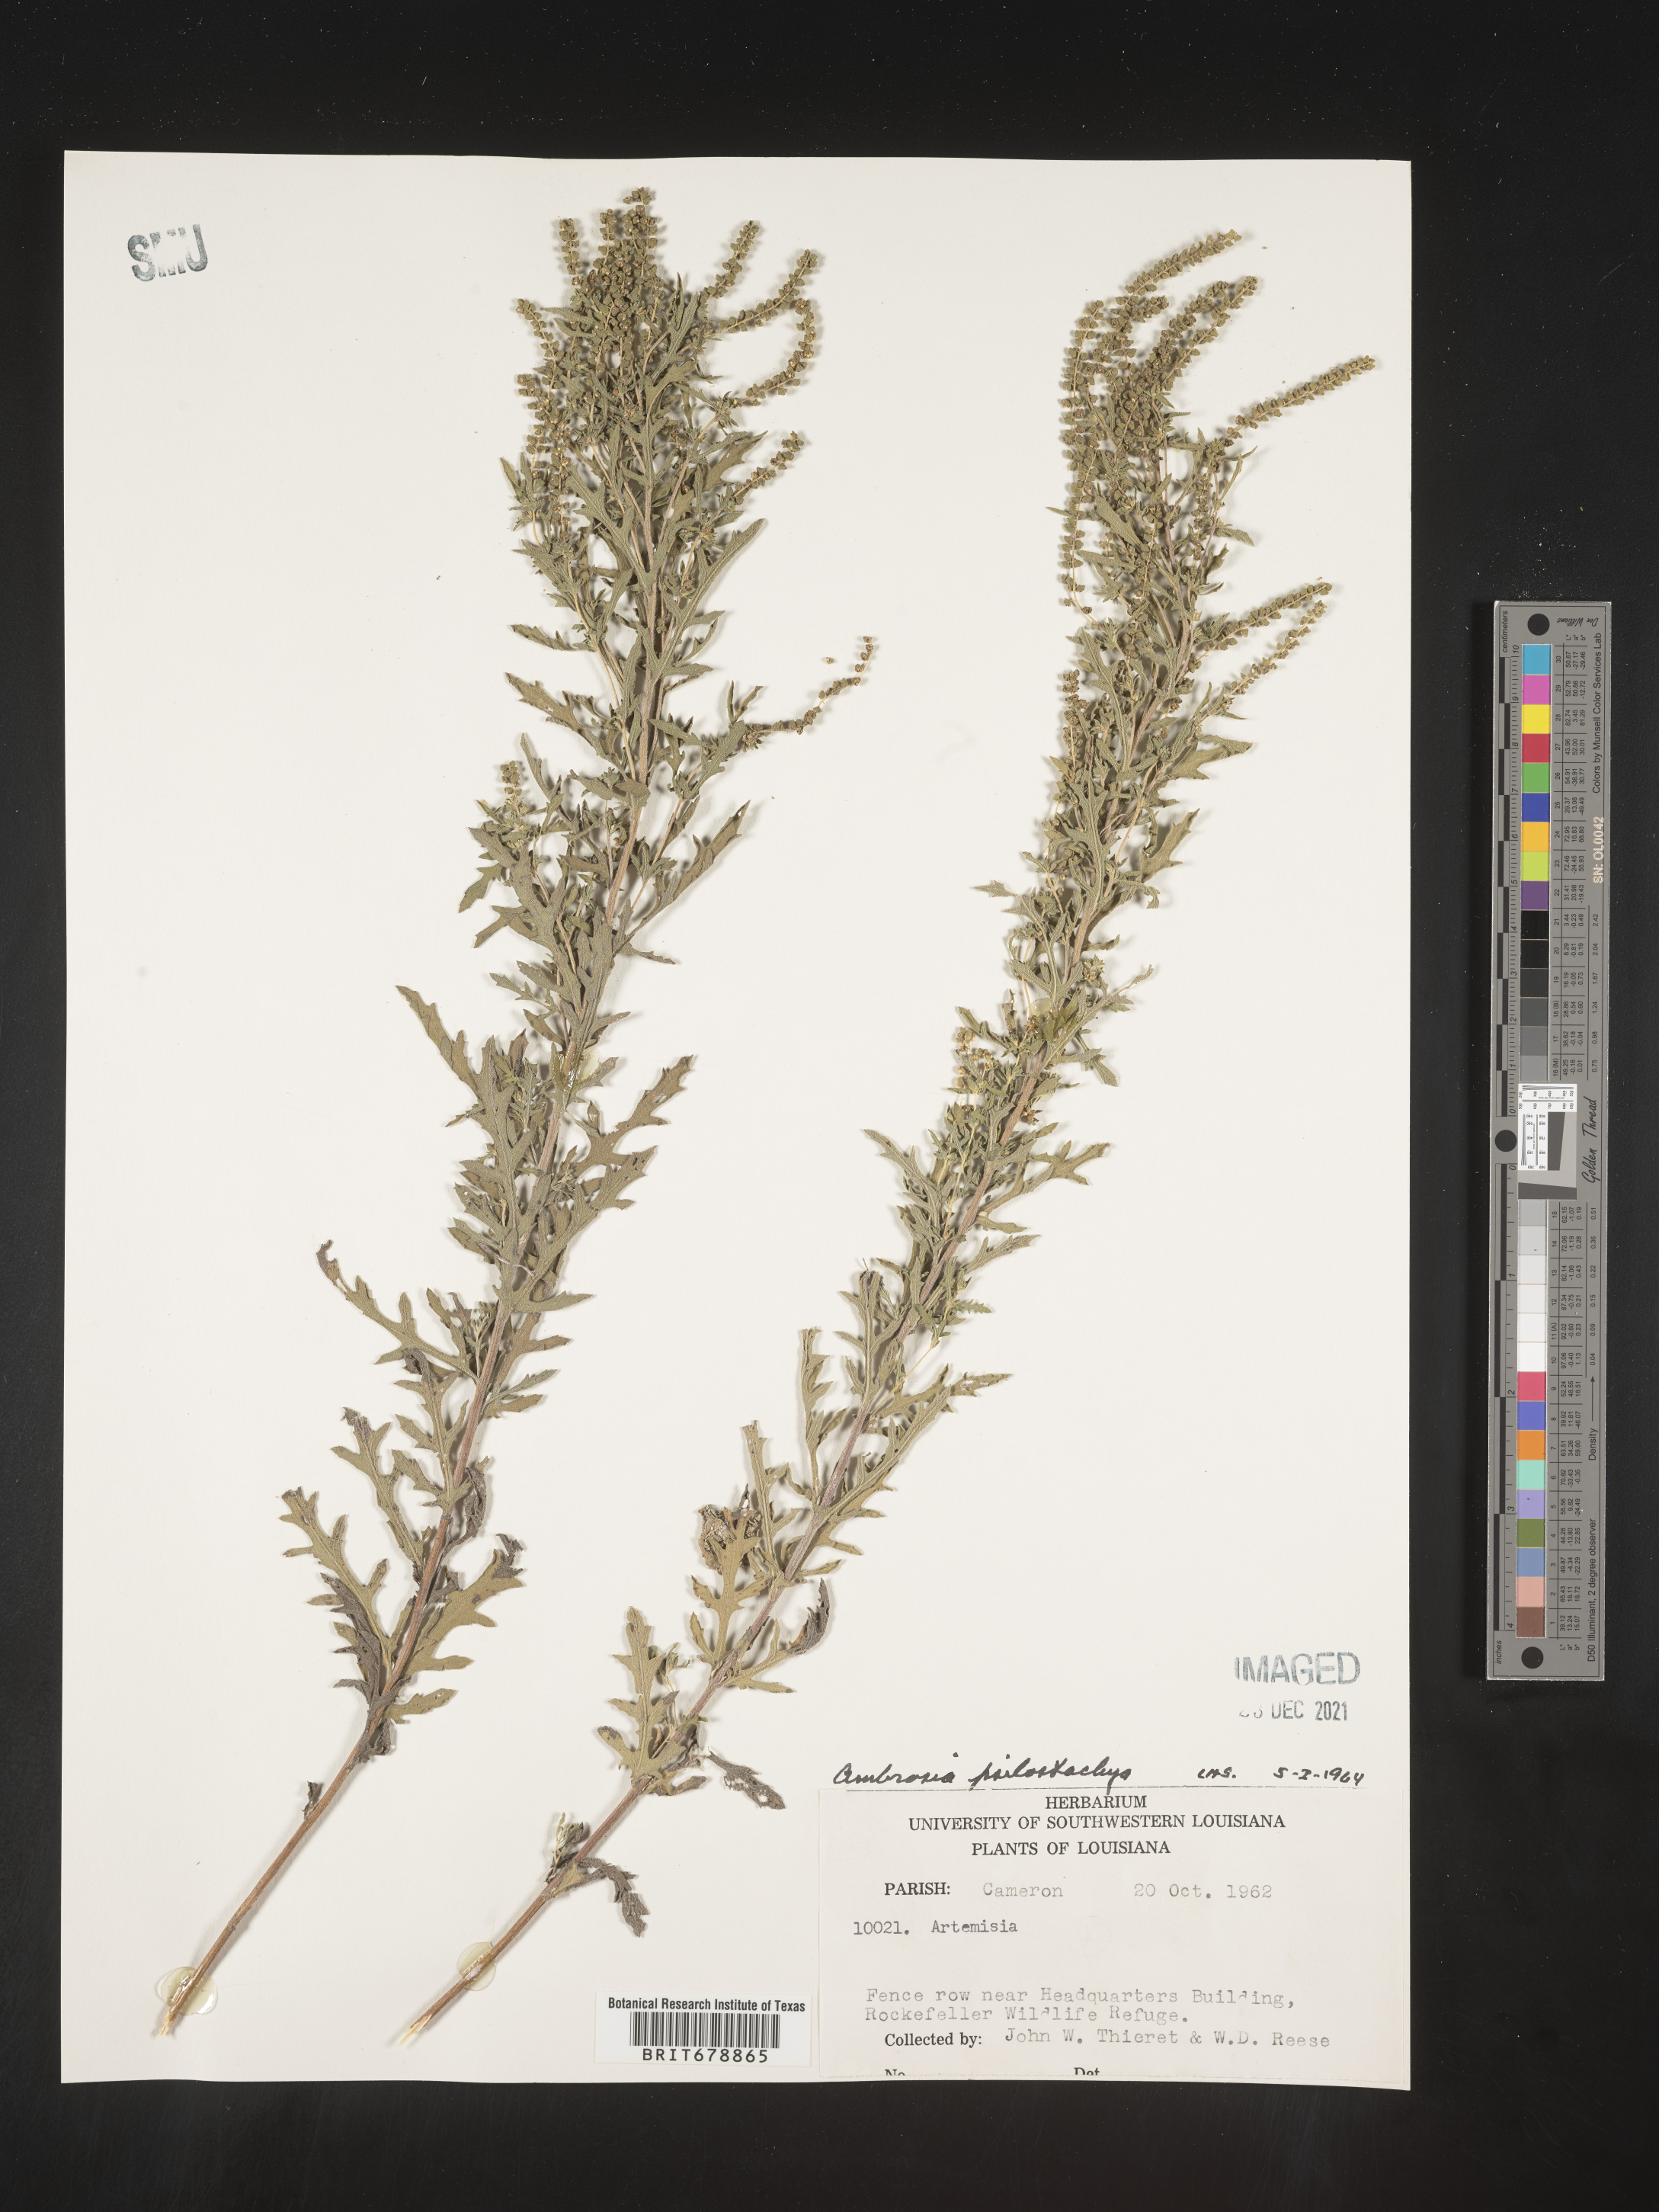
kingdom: Plantae
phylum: Tracheophyta
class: Magnoliopsida
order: Asterales
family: Asteraceae
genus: Ambrosia
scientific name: Ambrosia psilostachya
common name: Perennial ragweed
